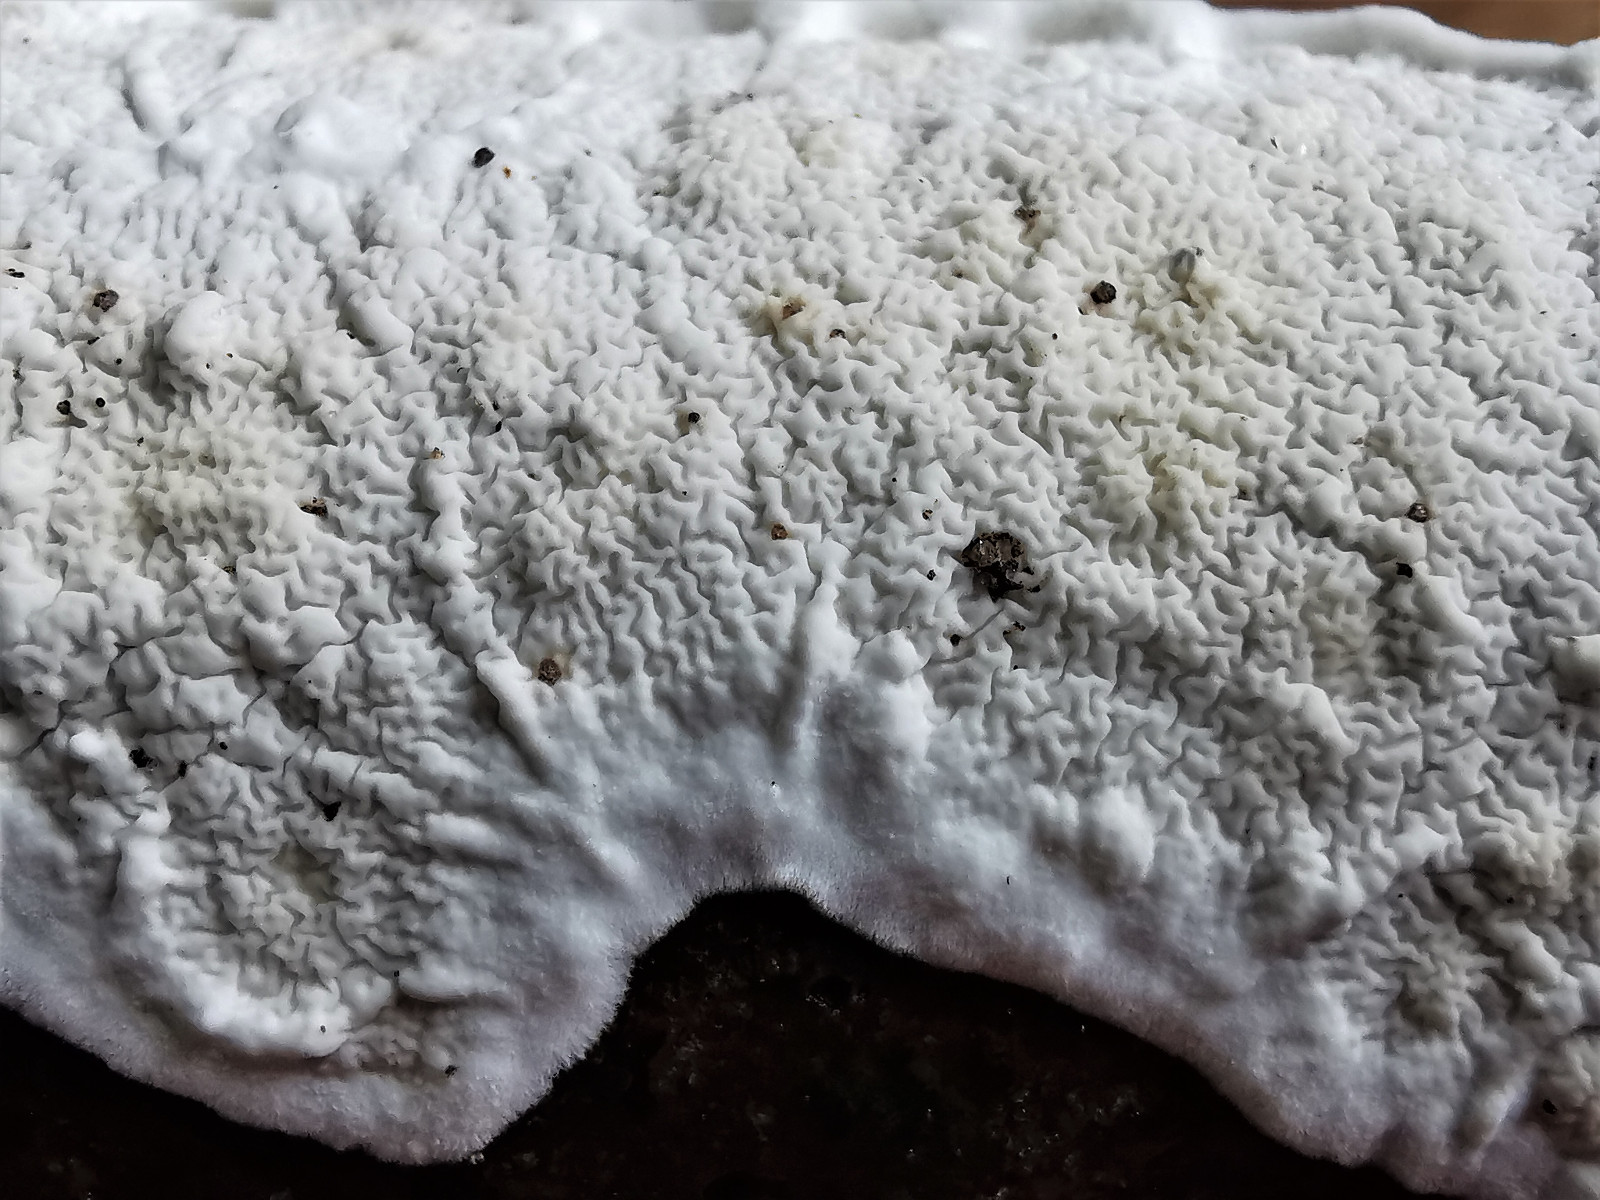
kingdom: Fungi
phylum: Basidiomycota
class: Agaricomycetes
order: Polyporales
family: Irpicaceae
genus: Byssomerulius
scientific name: Byssomerulius corium
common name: læder-åresvamp
